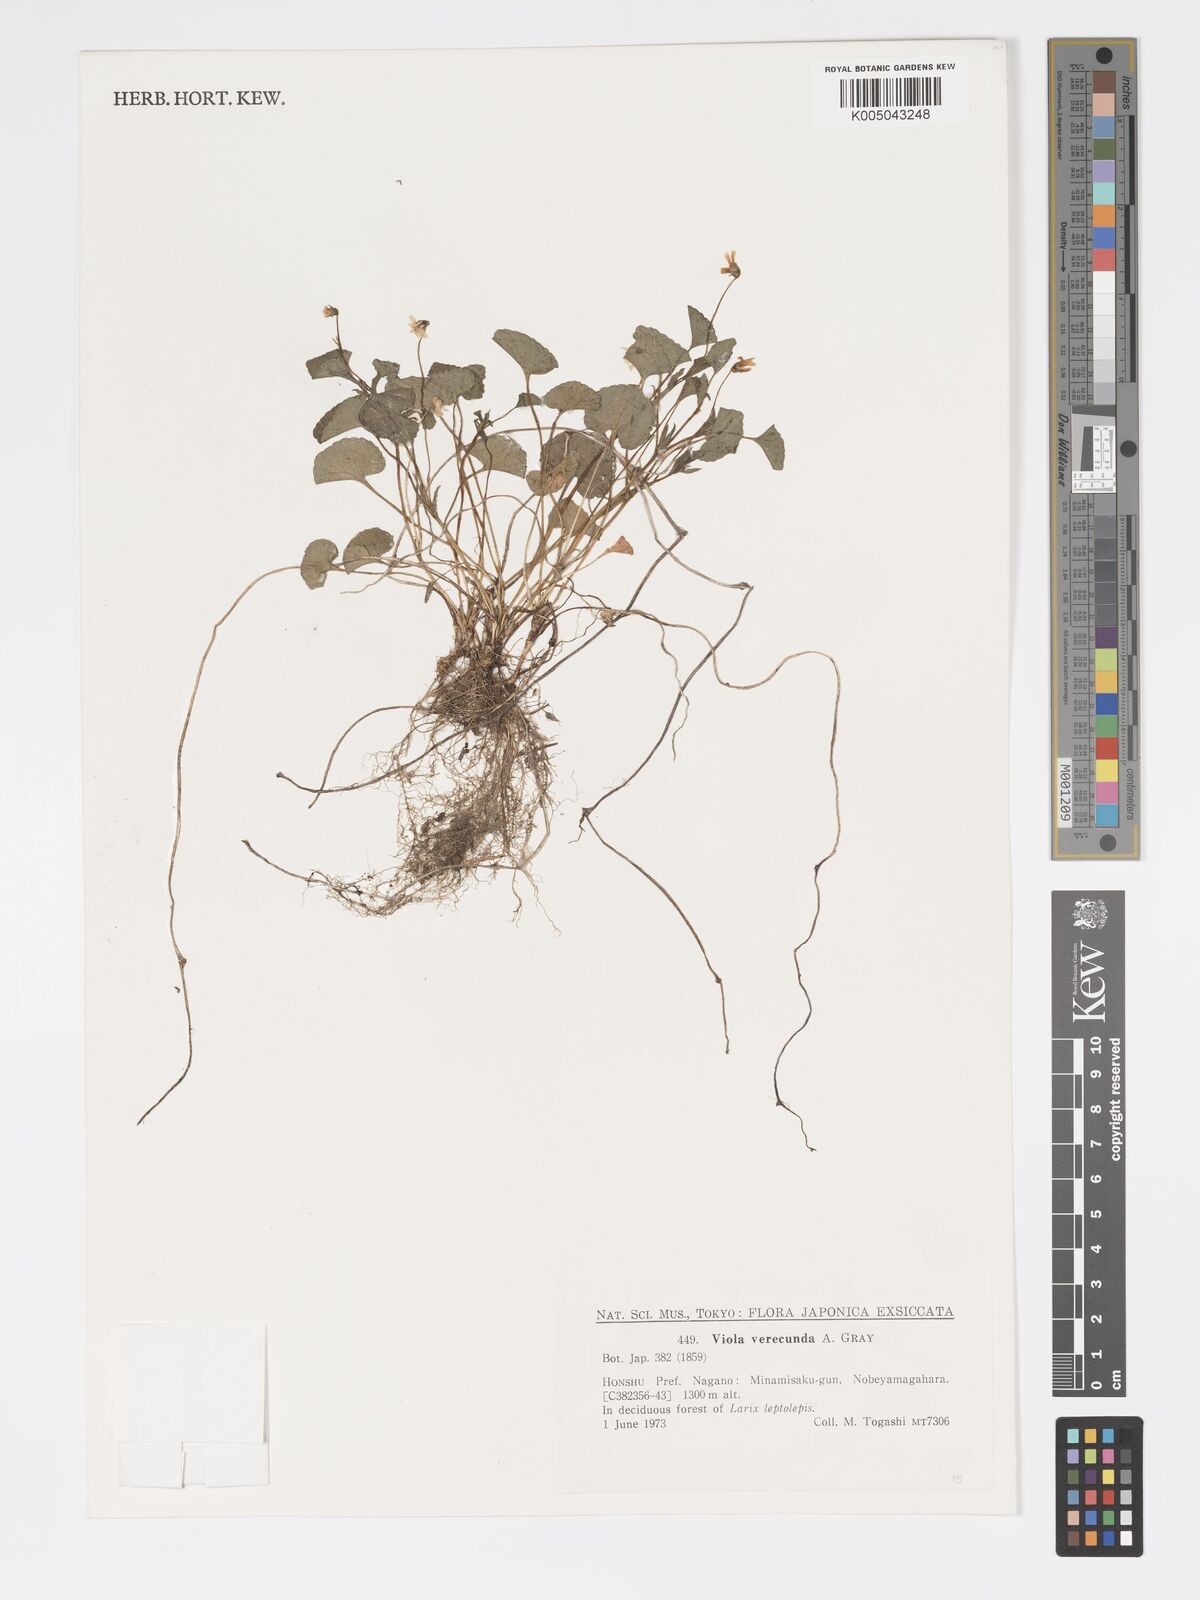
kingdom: Plantae
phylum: Tracheophyta
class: Magnoliopsida
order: Malpighiales
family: Violaceae
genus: Viola
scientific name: Viola hamiltoniana
